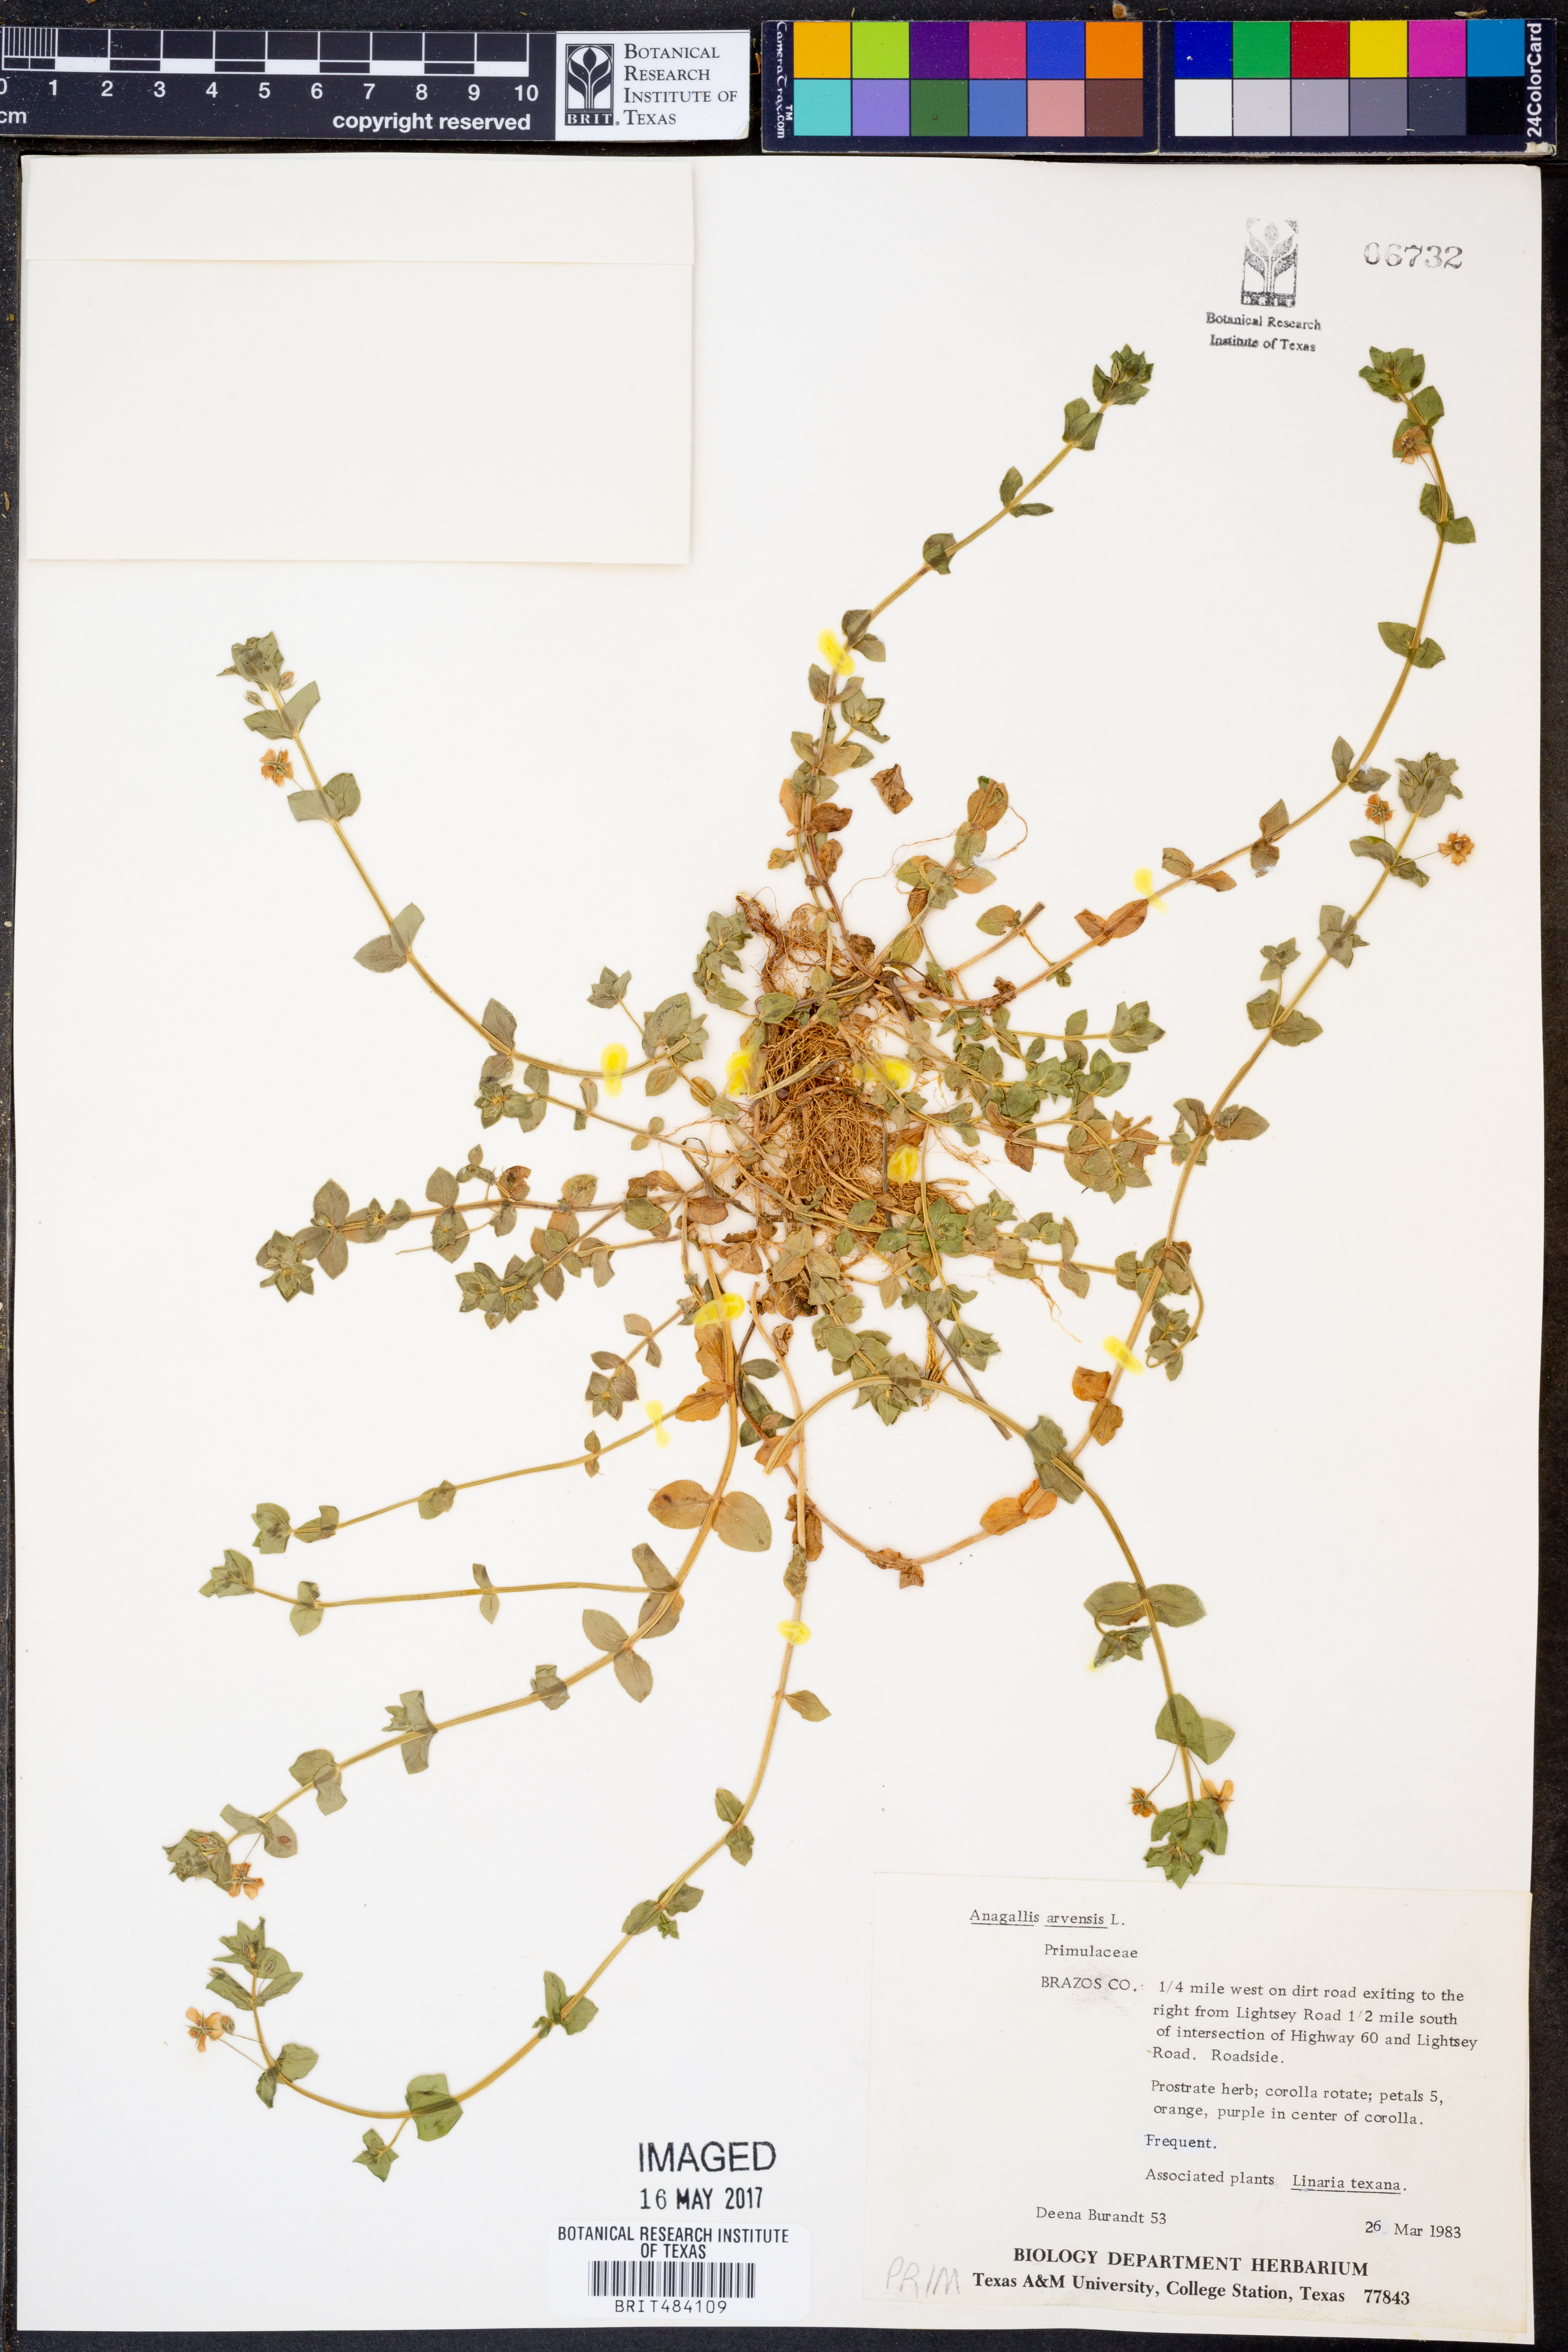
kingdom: Plantae
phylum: Tracheophyta
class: Magnoliopsida
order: Ericales
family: Primulaceae
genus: Lysimachia
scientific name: Lysimachia arvensis
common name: Scarlet pimpernel
